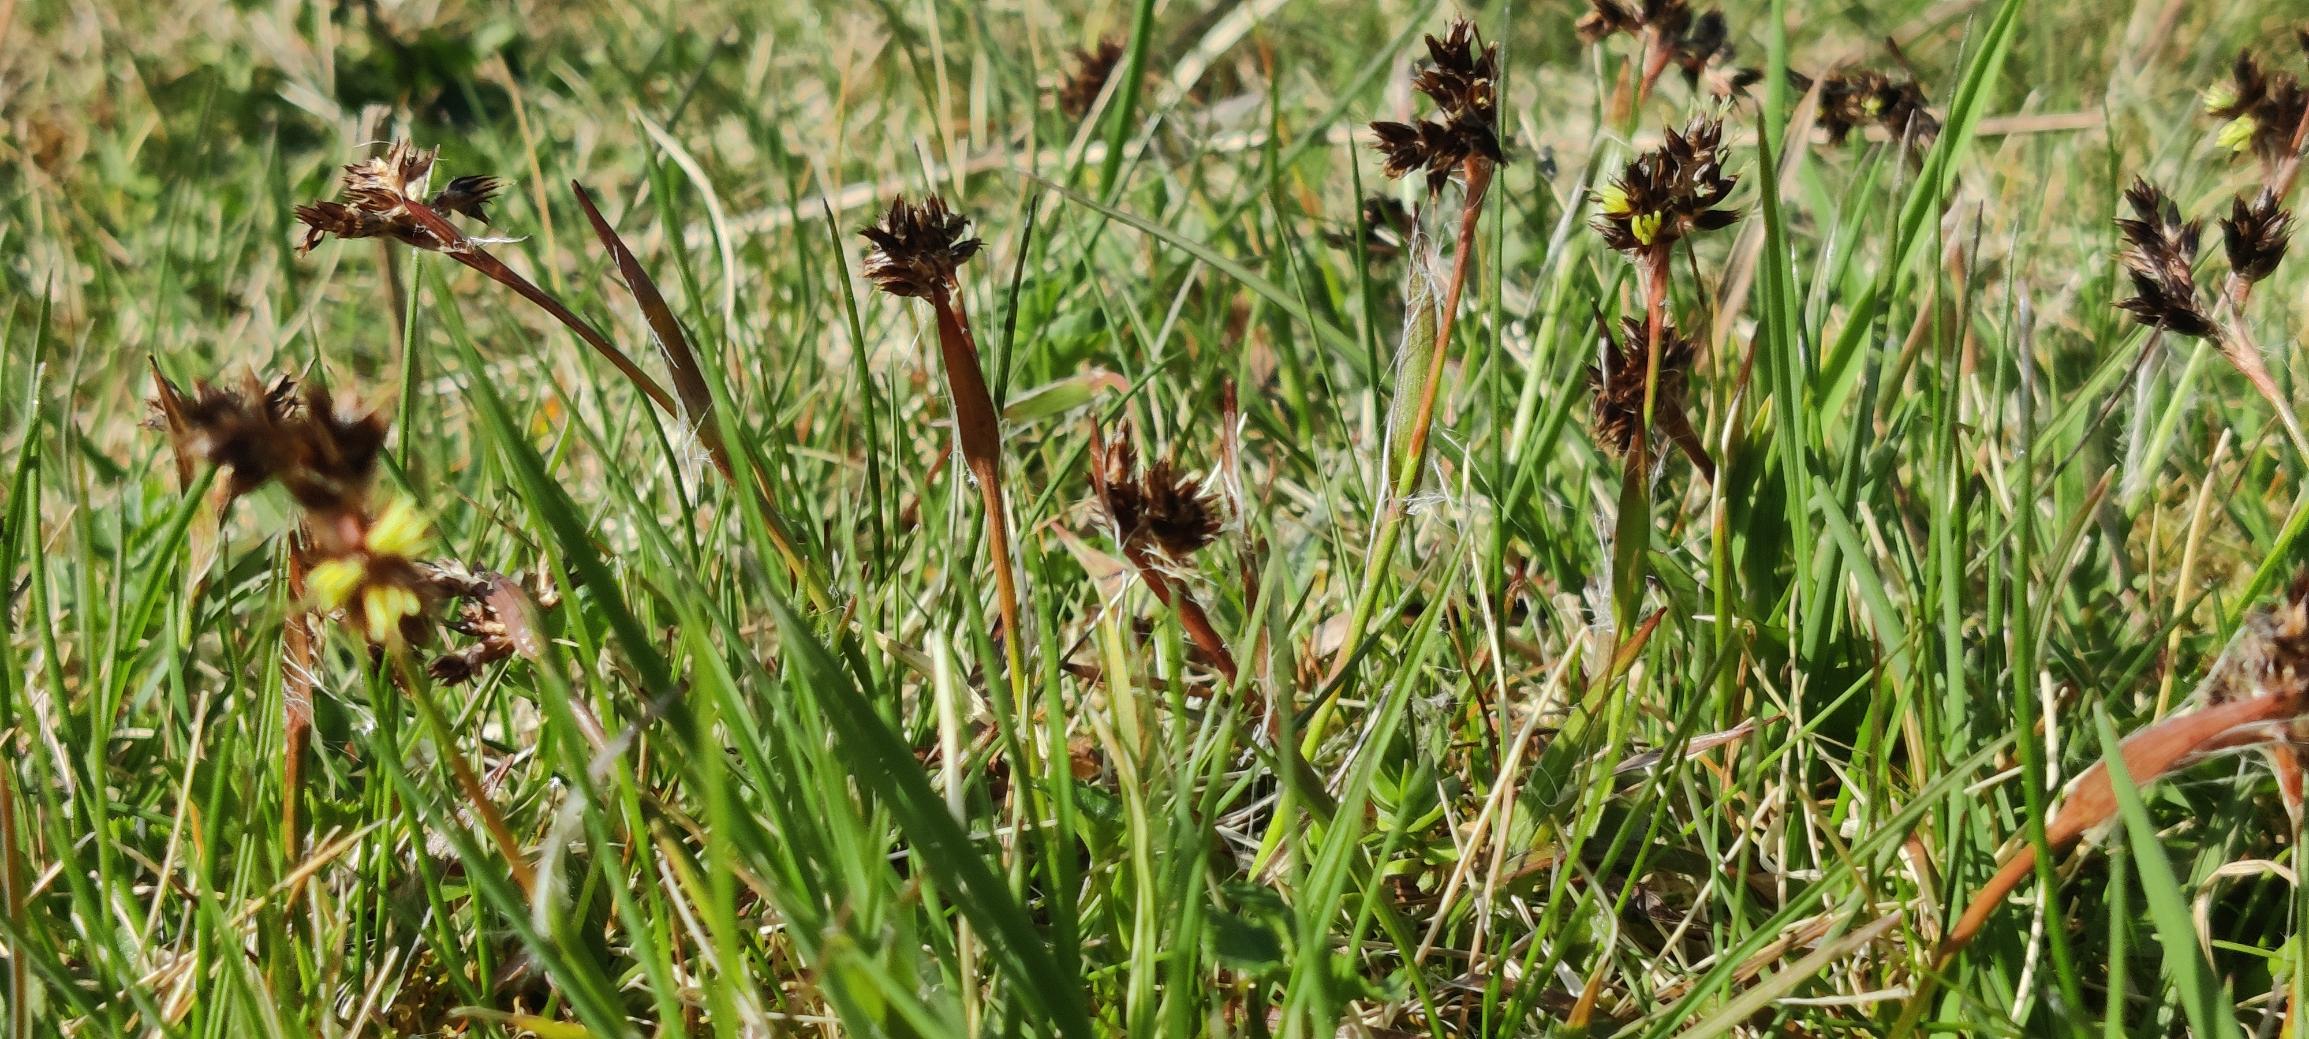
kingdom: Plantae
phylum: Tracheophyta
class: Liliopsida
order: Poales
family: Juncaceae
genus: Luzula
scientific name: Luzula campestris
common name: Mark-frytle
